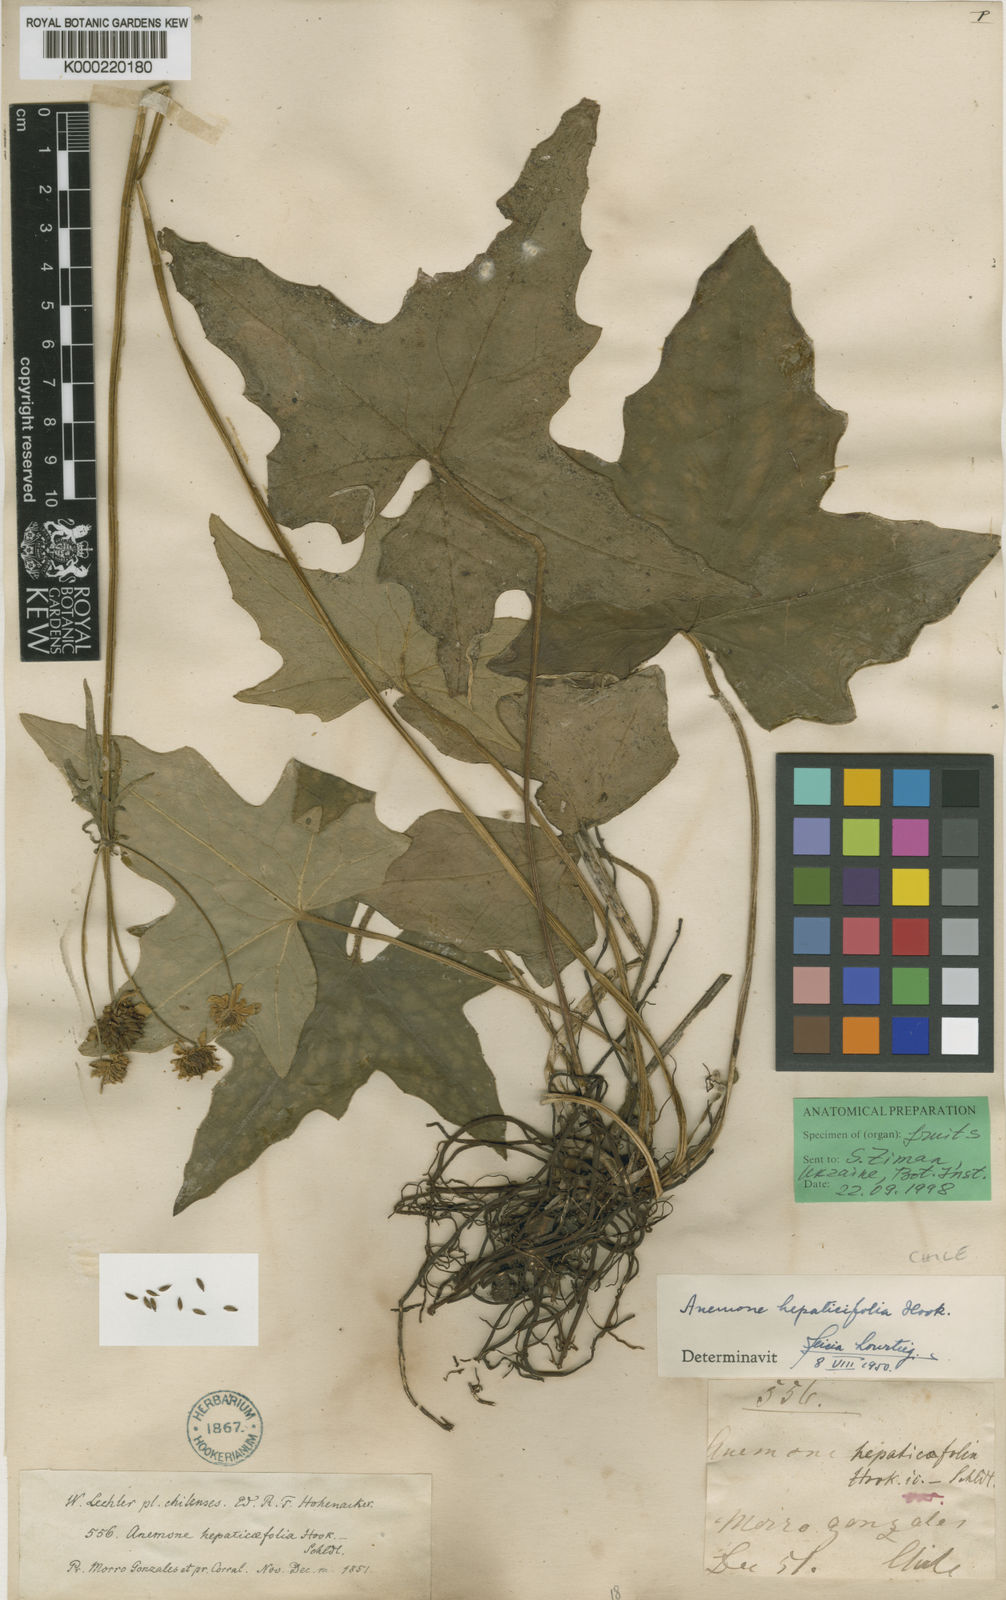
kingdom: Plantae
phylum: Tracheophyta
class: Magnoliopsida
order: Ranunculales
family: Ranunculaceae
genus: Knowltonia
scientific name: Knowltonia hepaticifolia
